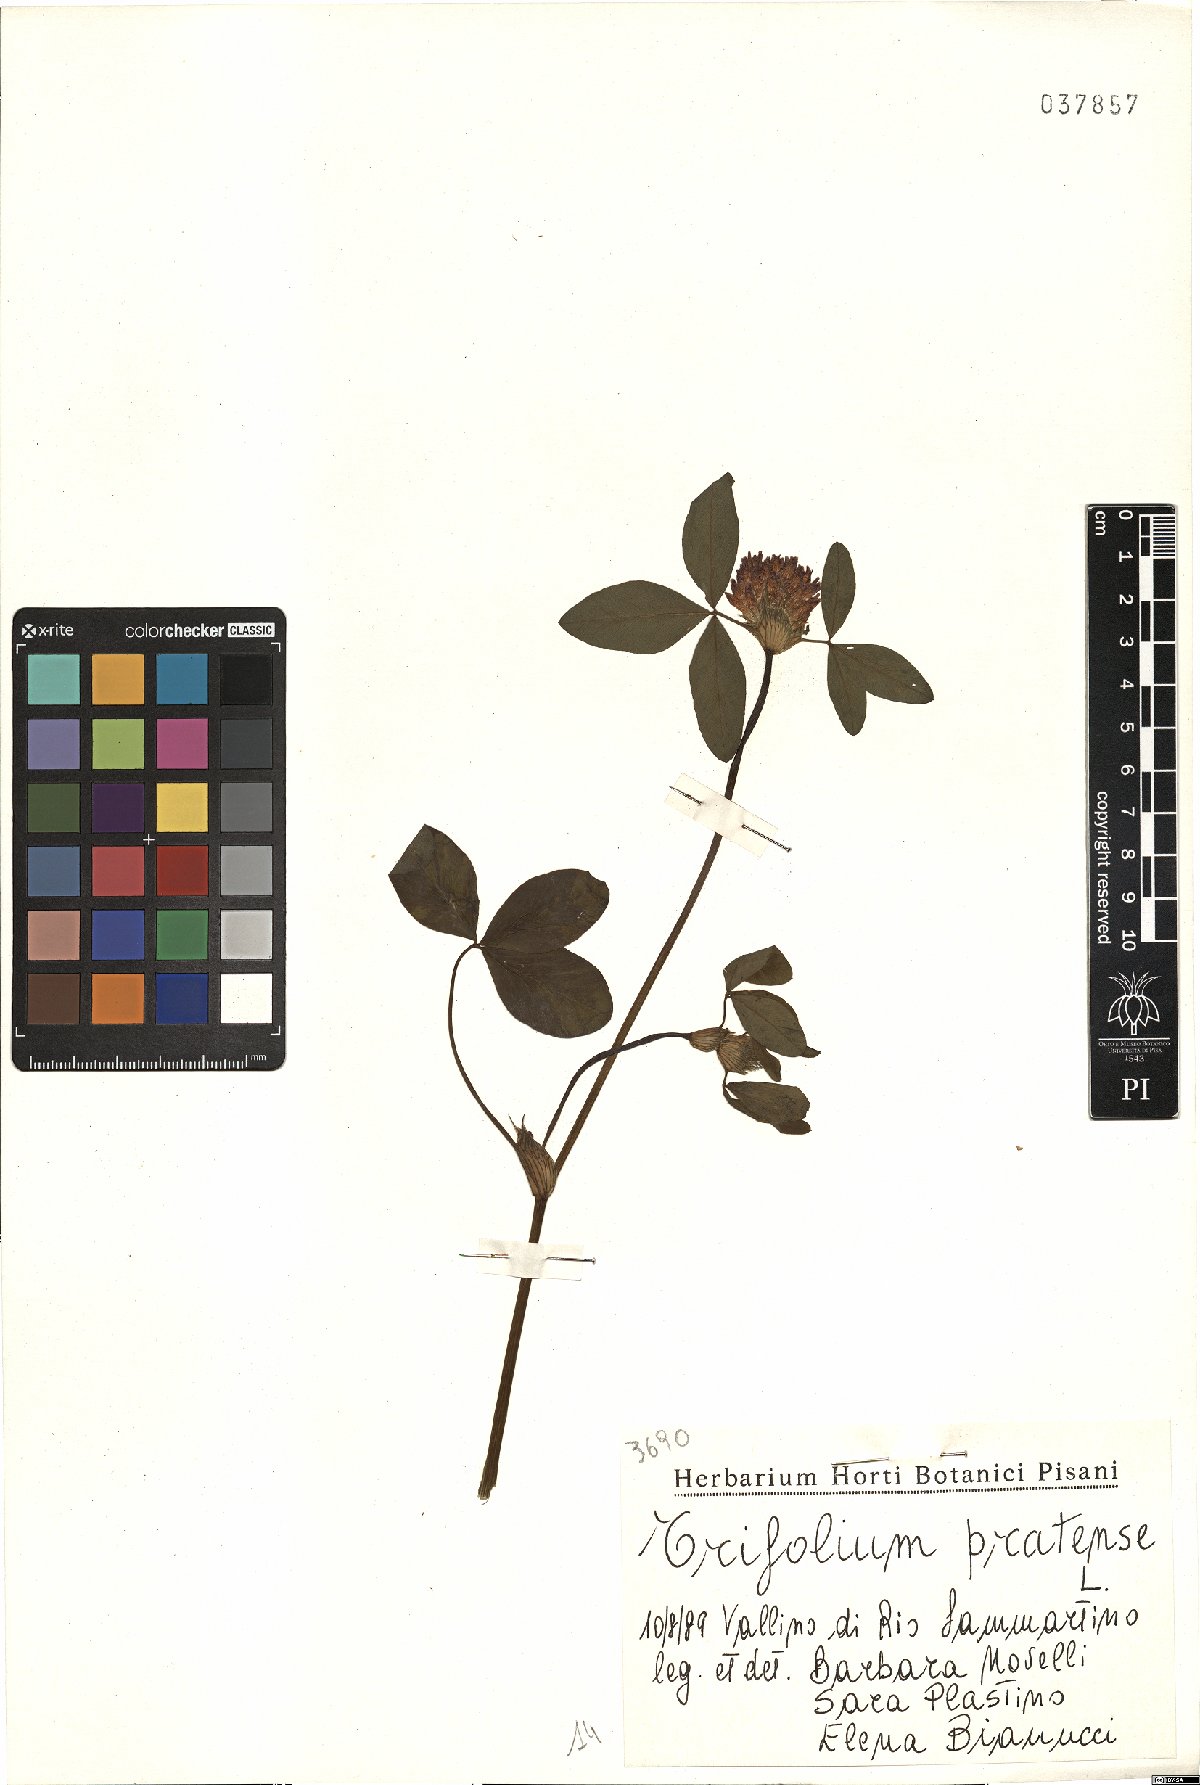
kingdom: Plantae
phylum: Tracheophyta
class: Magnoliopsida
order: Fabales
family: Fabaceae
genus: Trifolium
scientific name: Trifolium pratense
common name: Red clover
